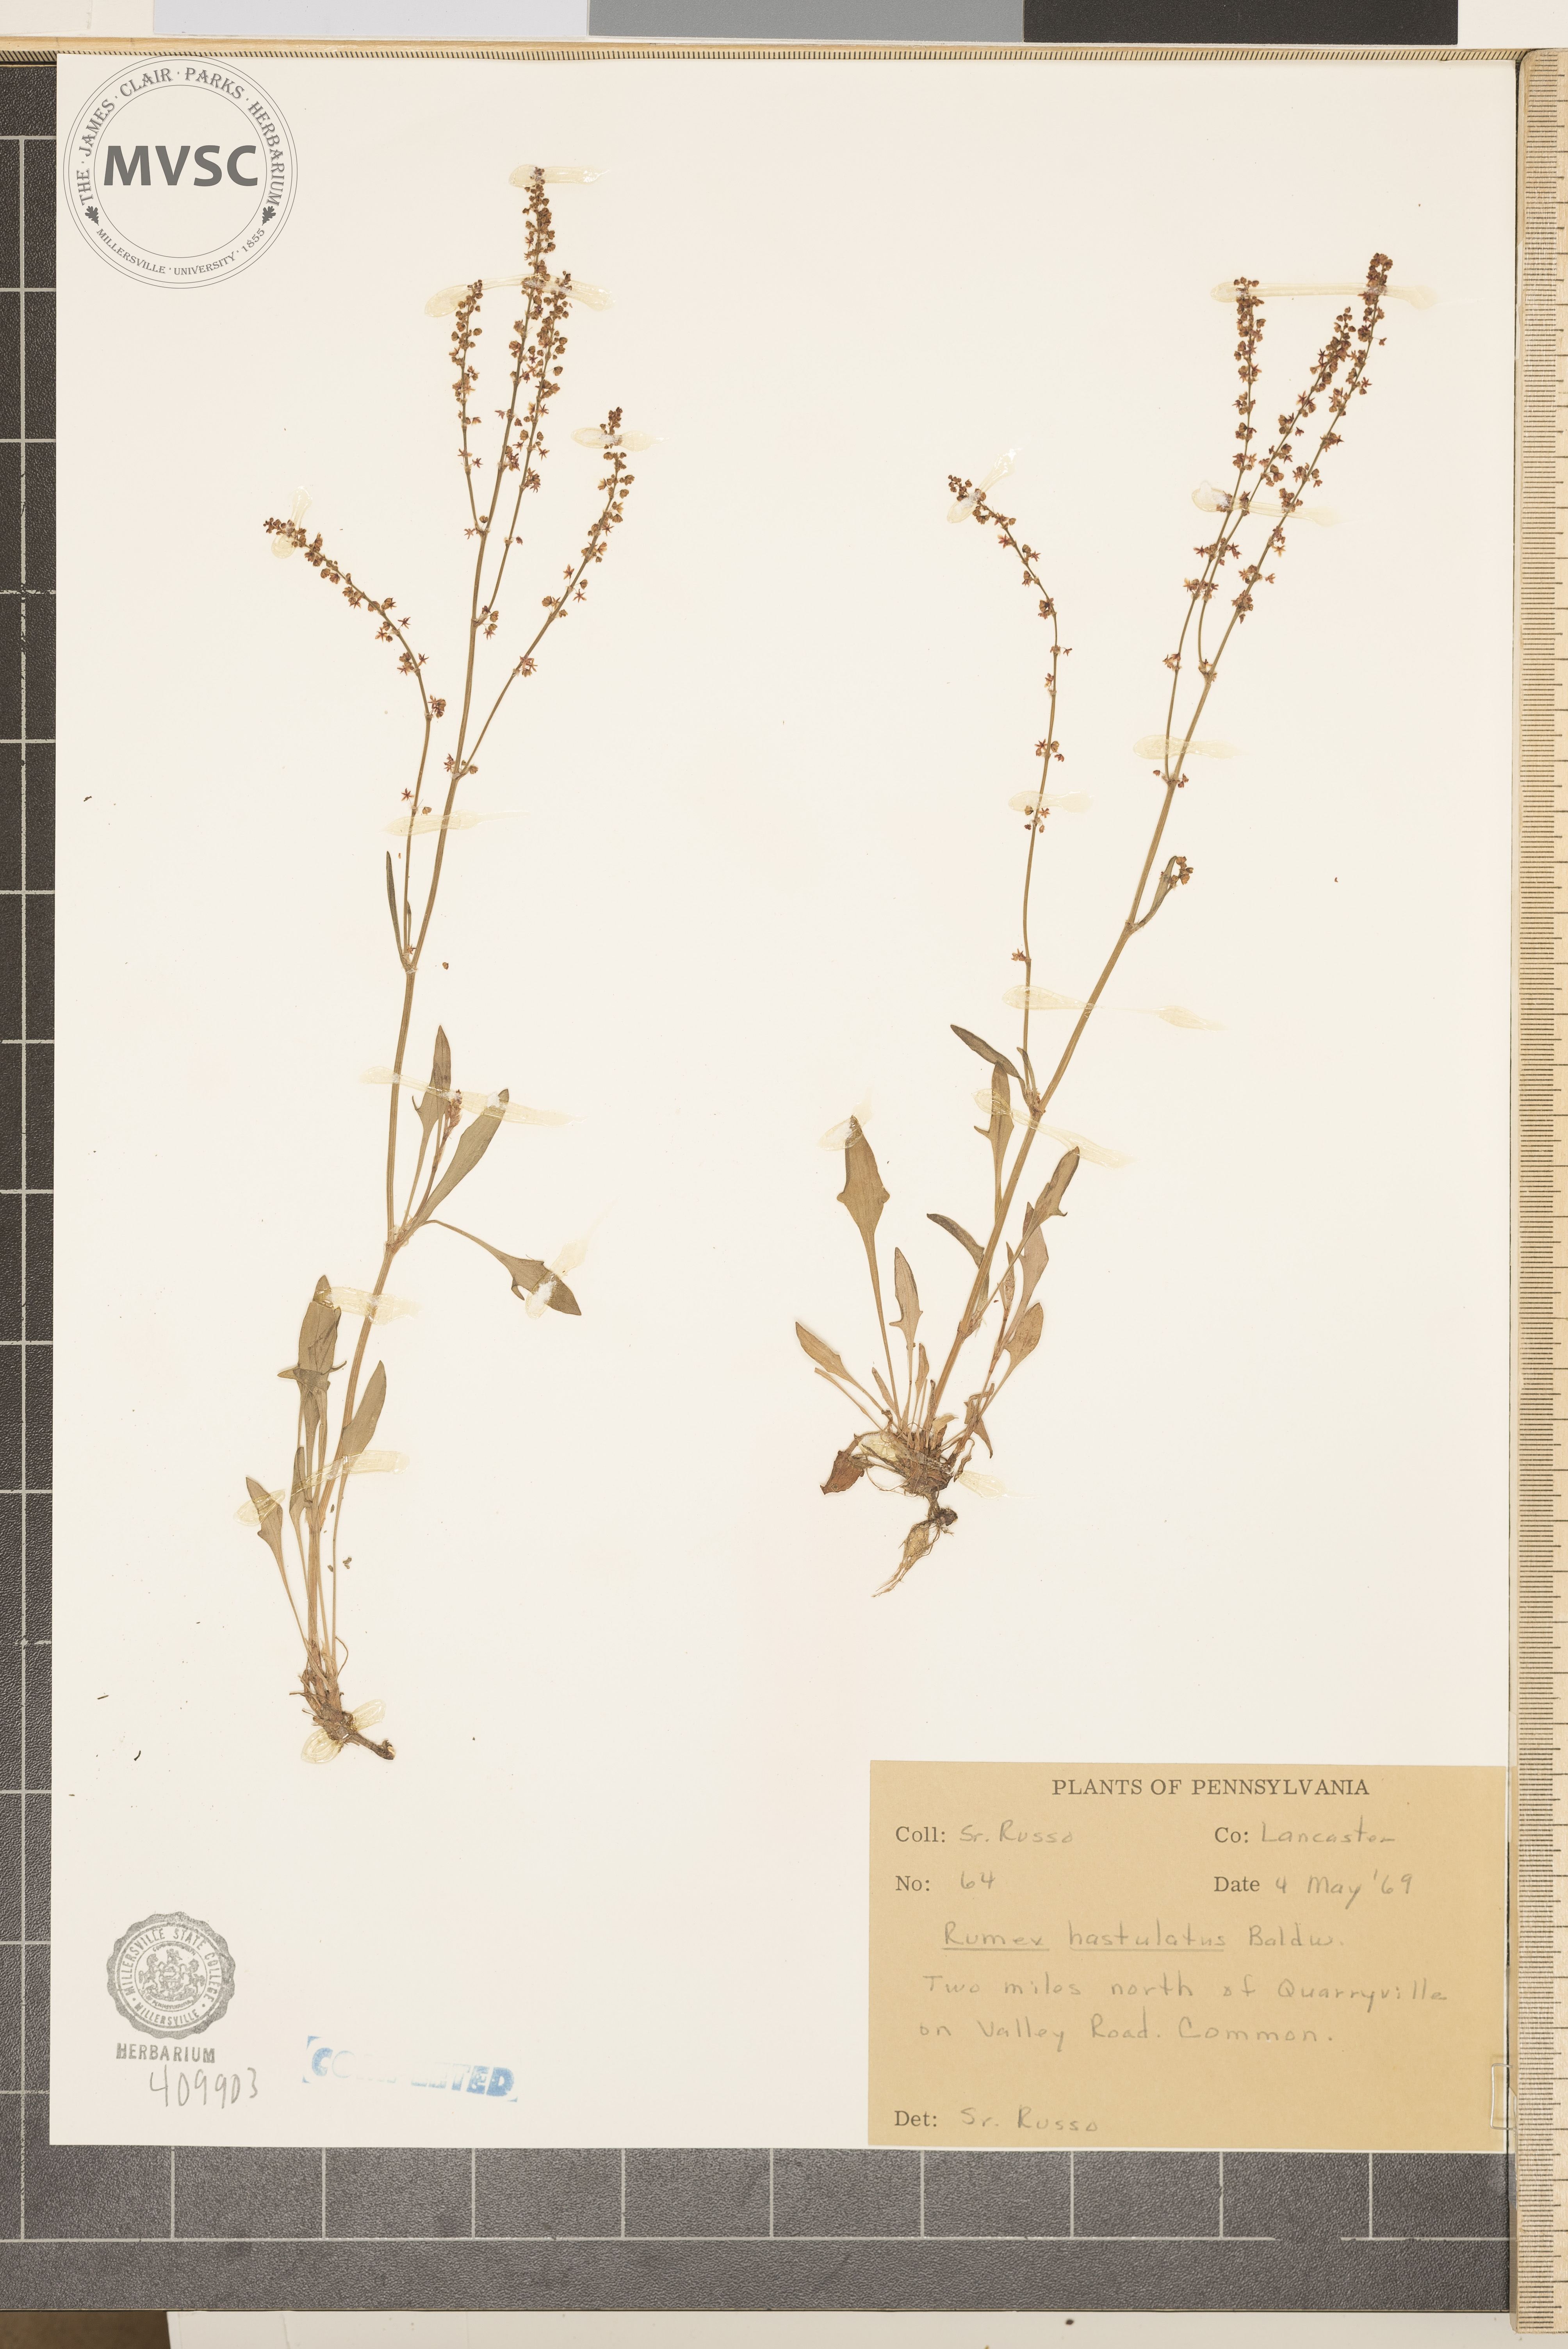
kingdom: Plantae
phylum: Tracheophyta
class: Magnoliopsida
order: Caryophyllales
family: Polygonaceae
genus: Rumex
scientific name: Rumex acetosella
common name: Common sheep sorrel
